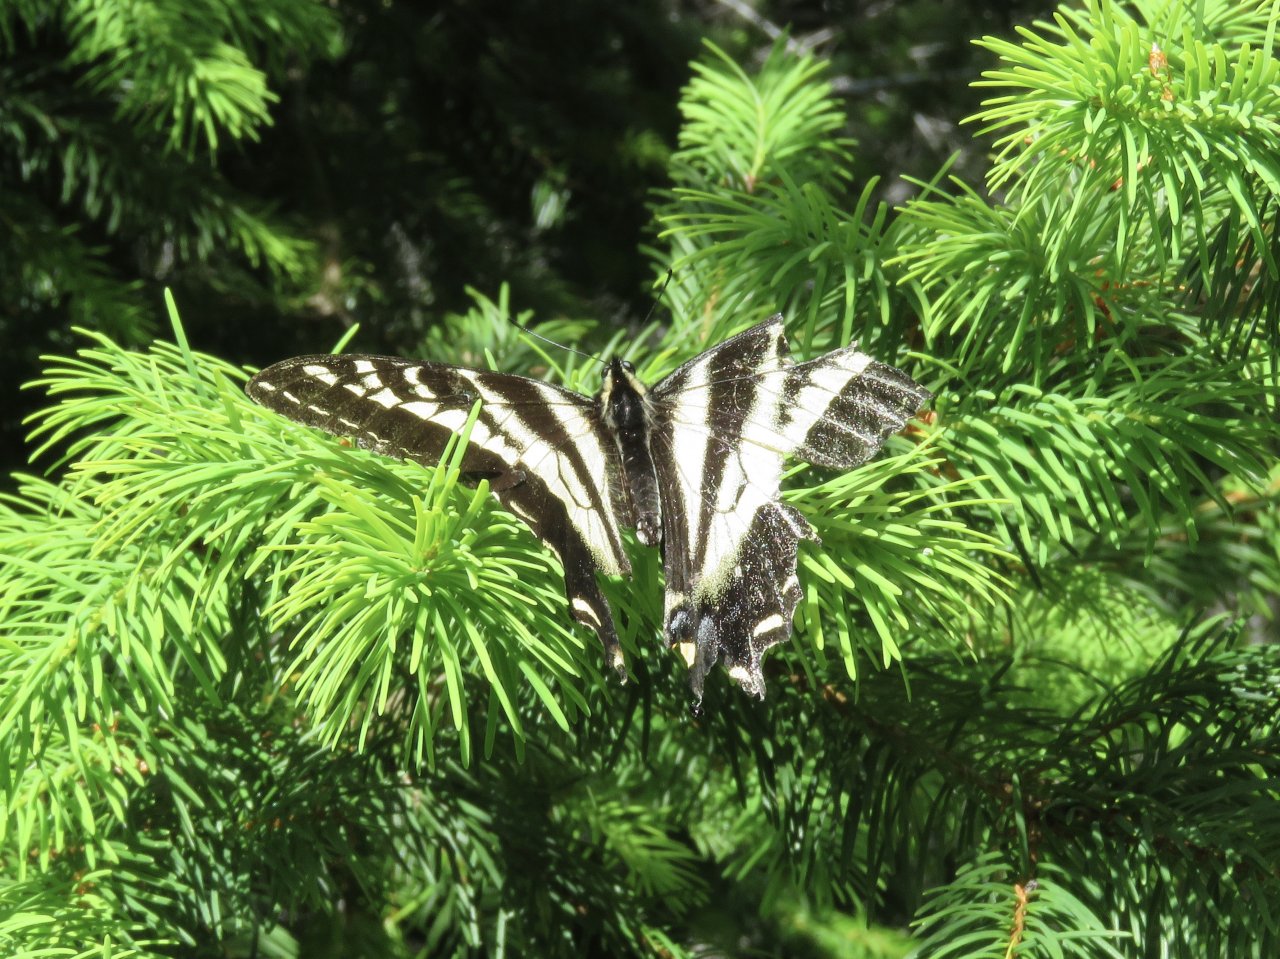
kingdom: Animalia
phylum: Arthropoda
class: Insecta
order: Lepidoptera
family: Papilionidae
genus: Pterourus
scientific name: Pterourus eurymedon
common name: Pale Swallowtail
